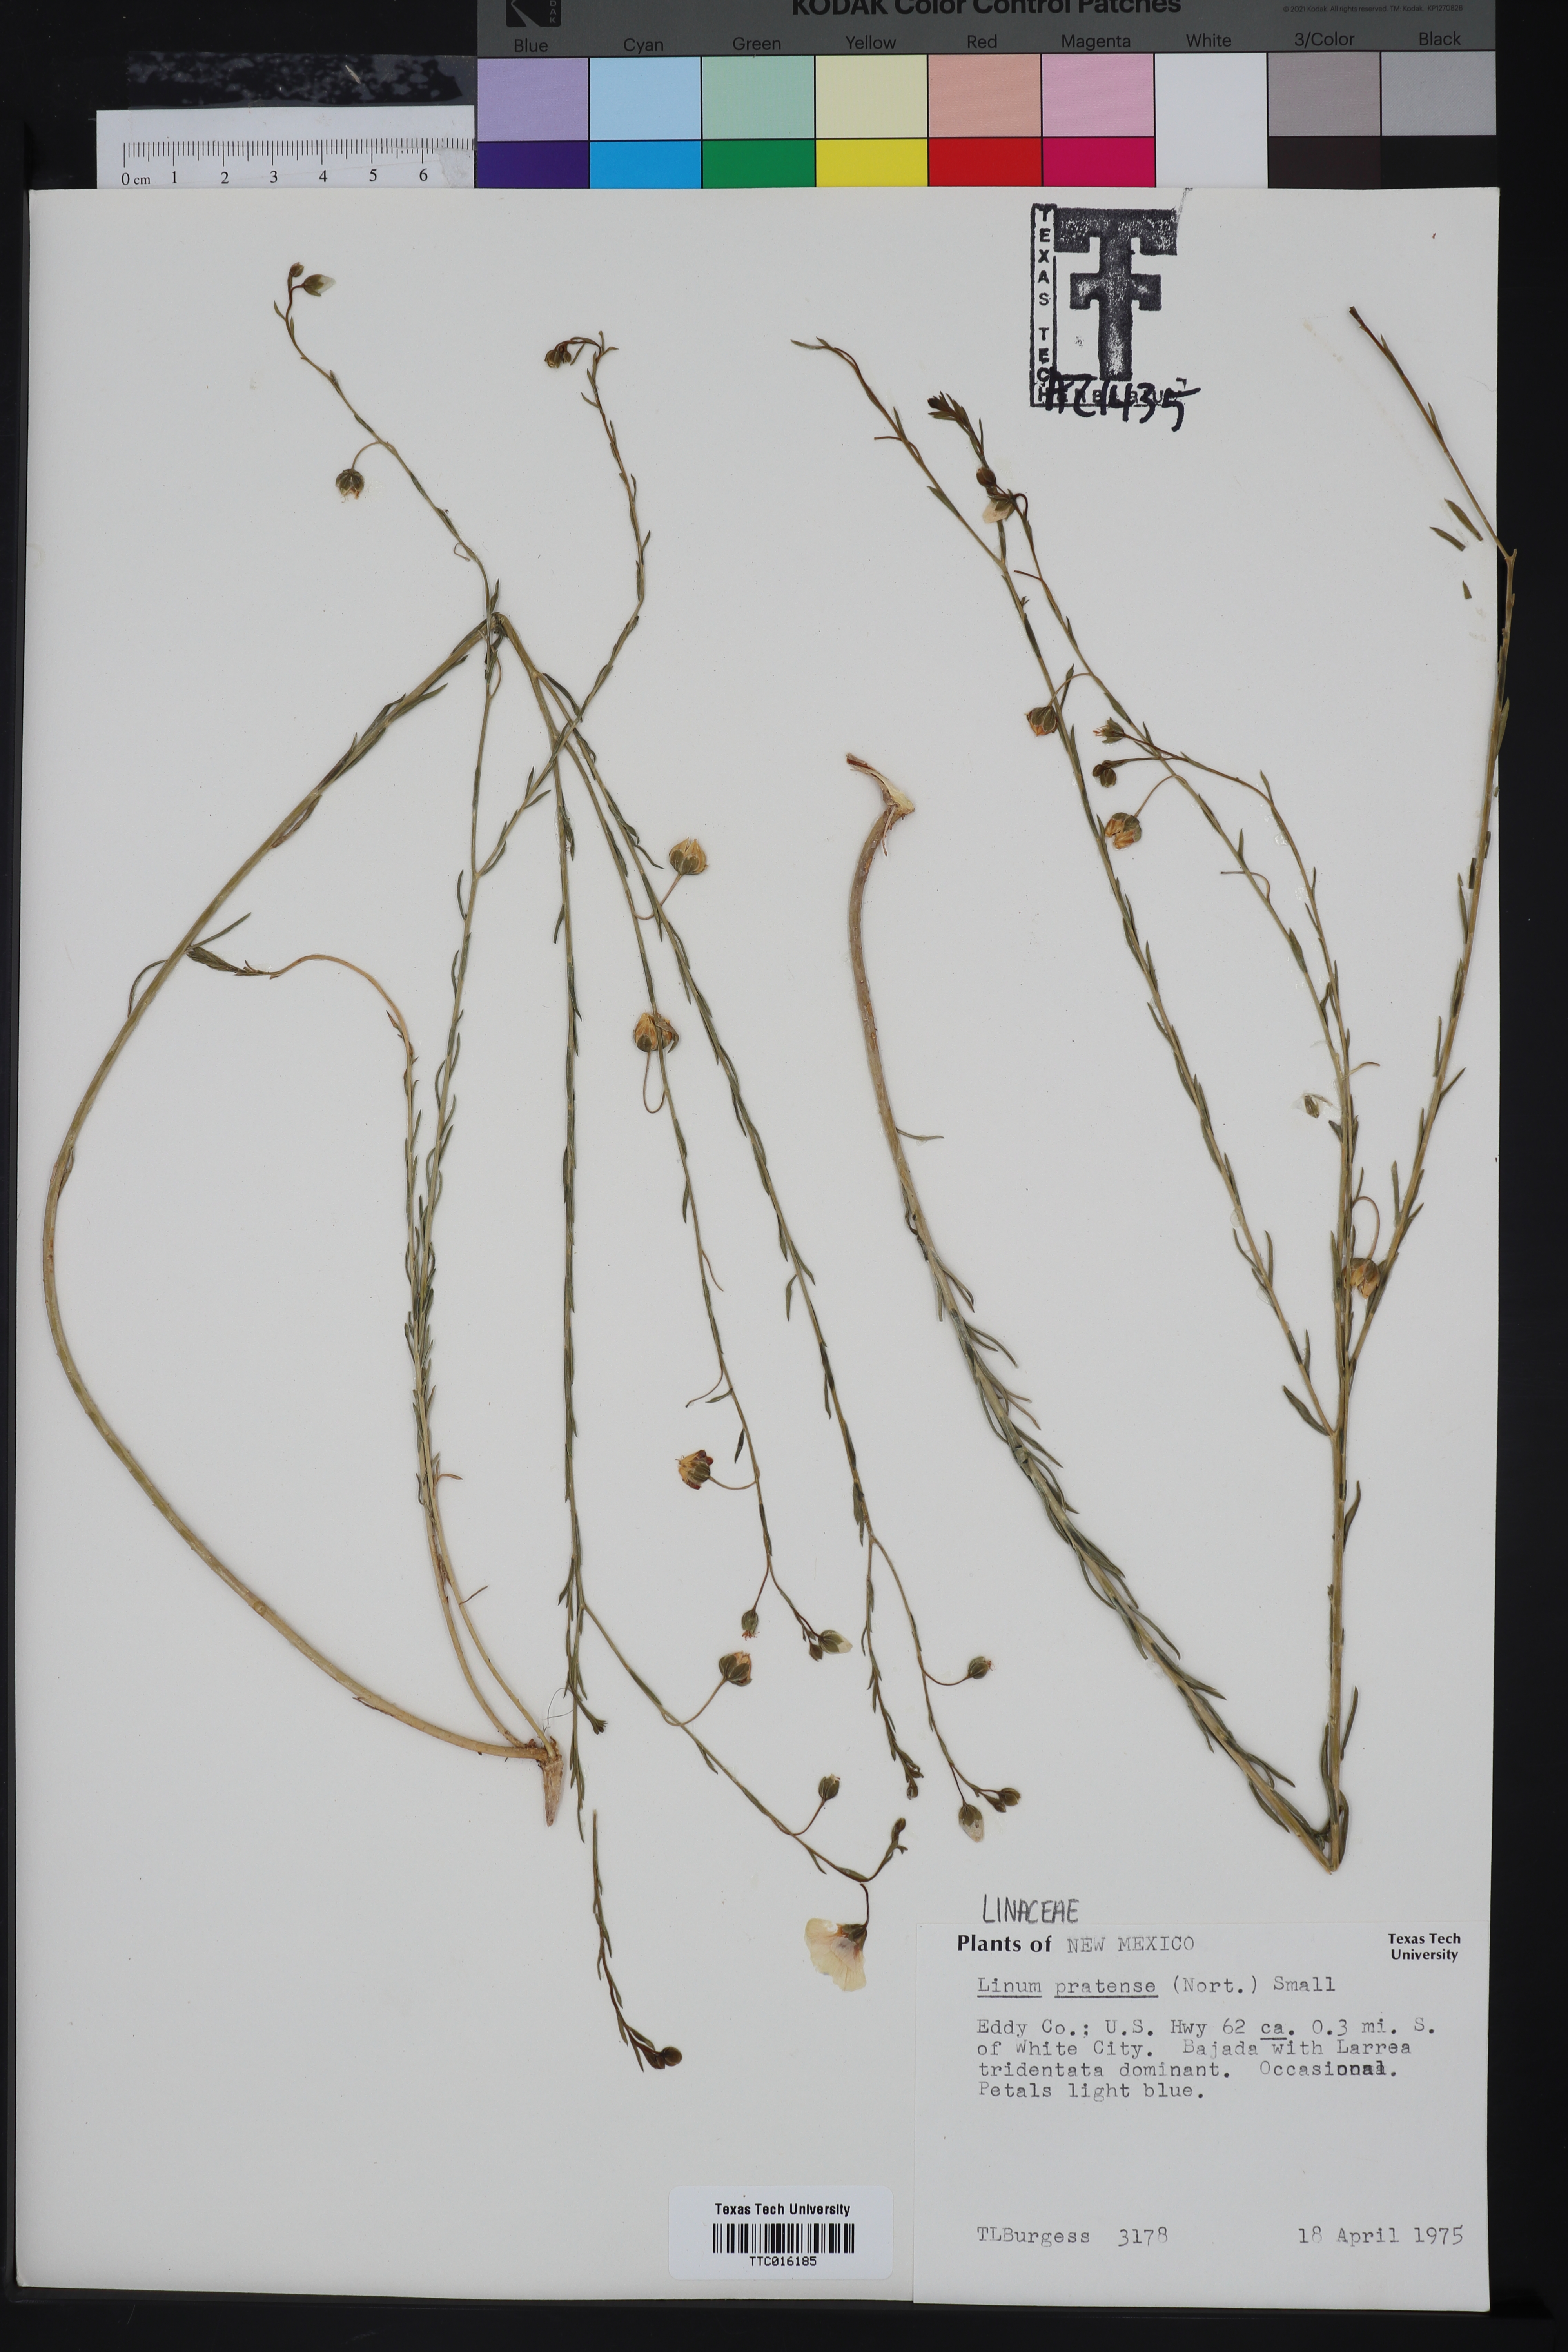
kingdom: Plantae
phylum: Tracheophyta
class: Magnoliopsida
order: Malpighiales
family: Linaceae
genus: Linum
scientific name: Linum pratense
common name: Norton's flax
